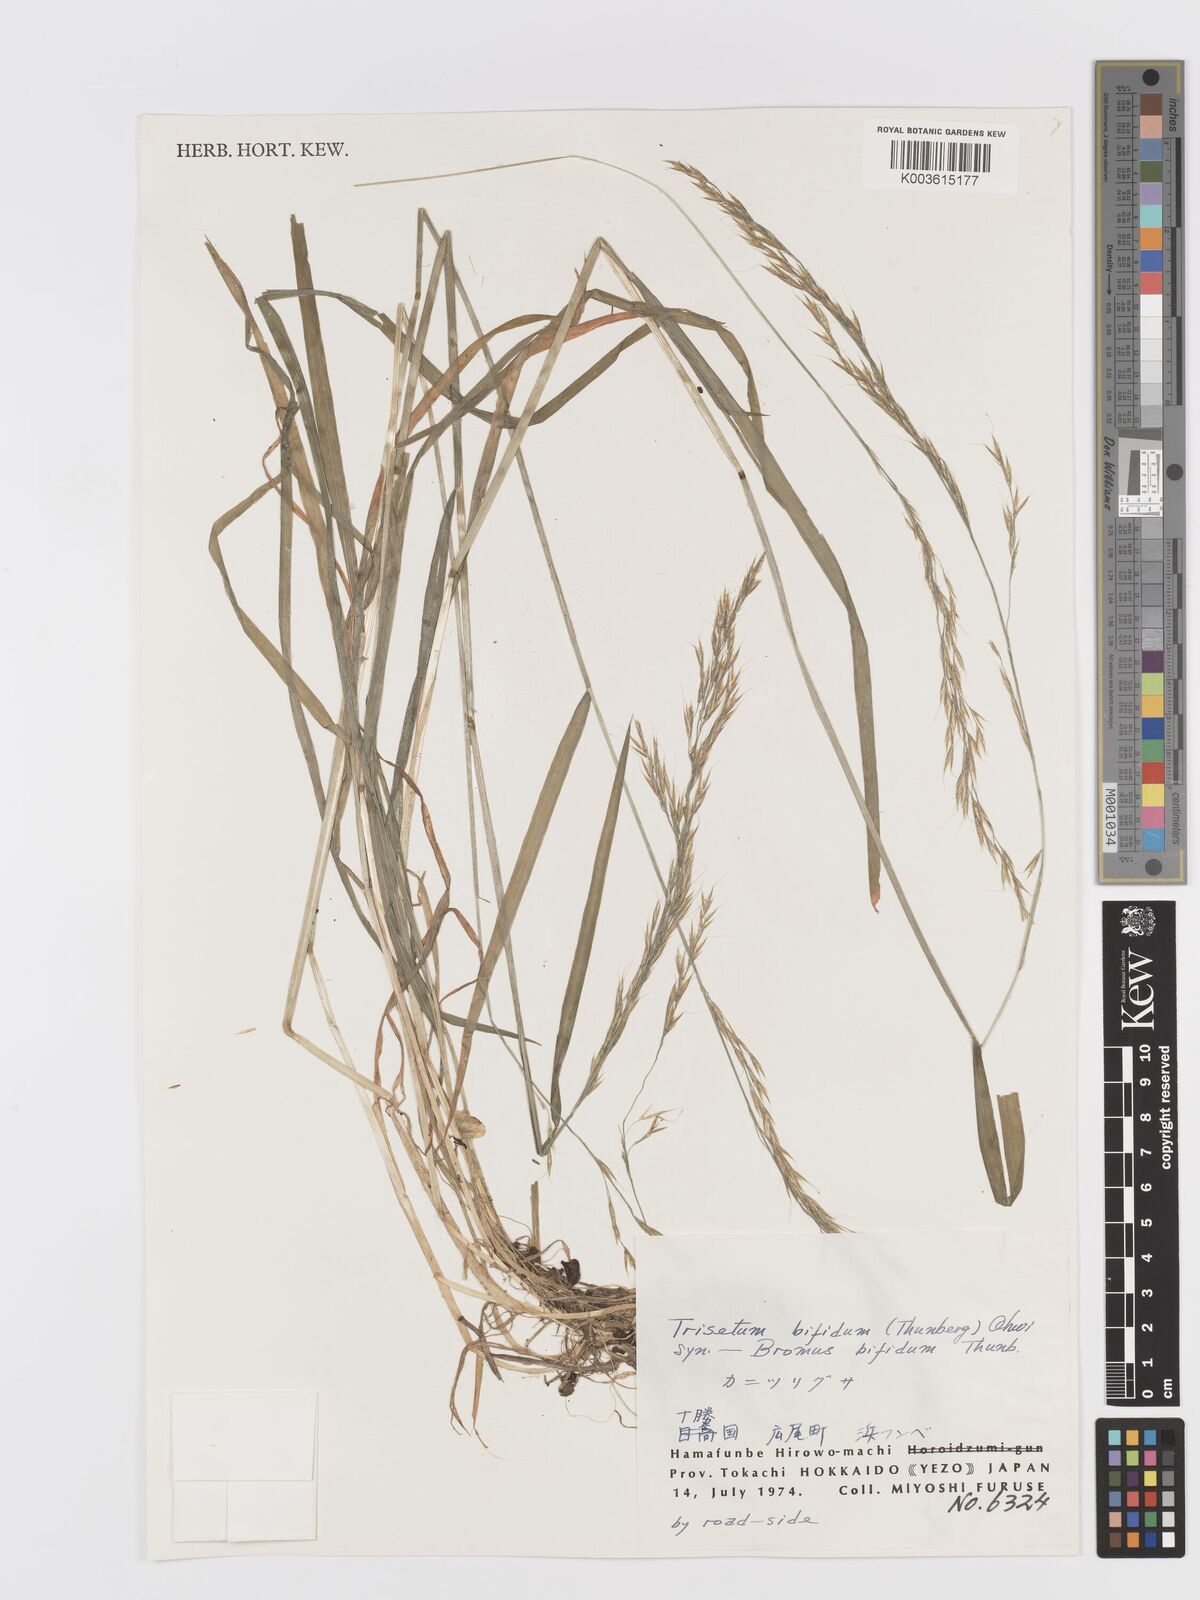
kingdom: Plantae
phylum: Tracheophyta
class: Liliopsida
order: Poales
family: Poaceae
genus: Sibirotrisetum
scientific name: Sibirotrisetum bifidum
